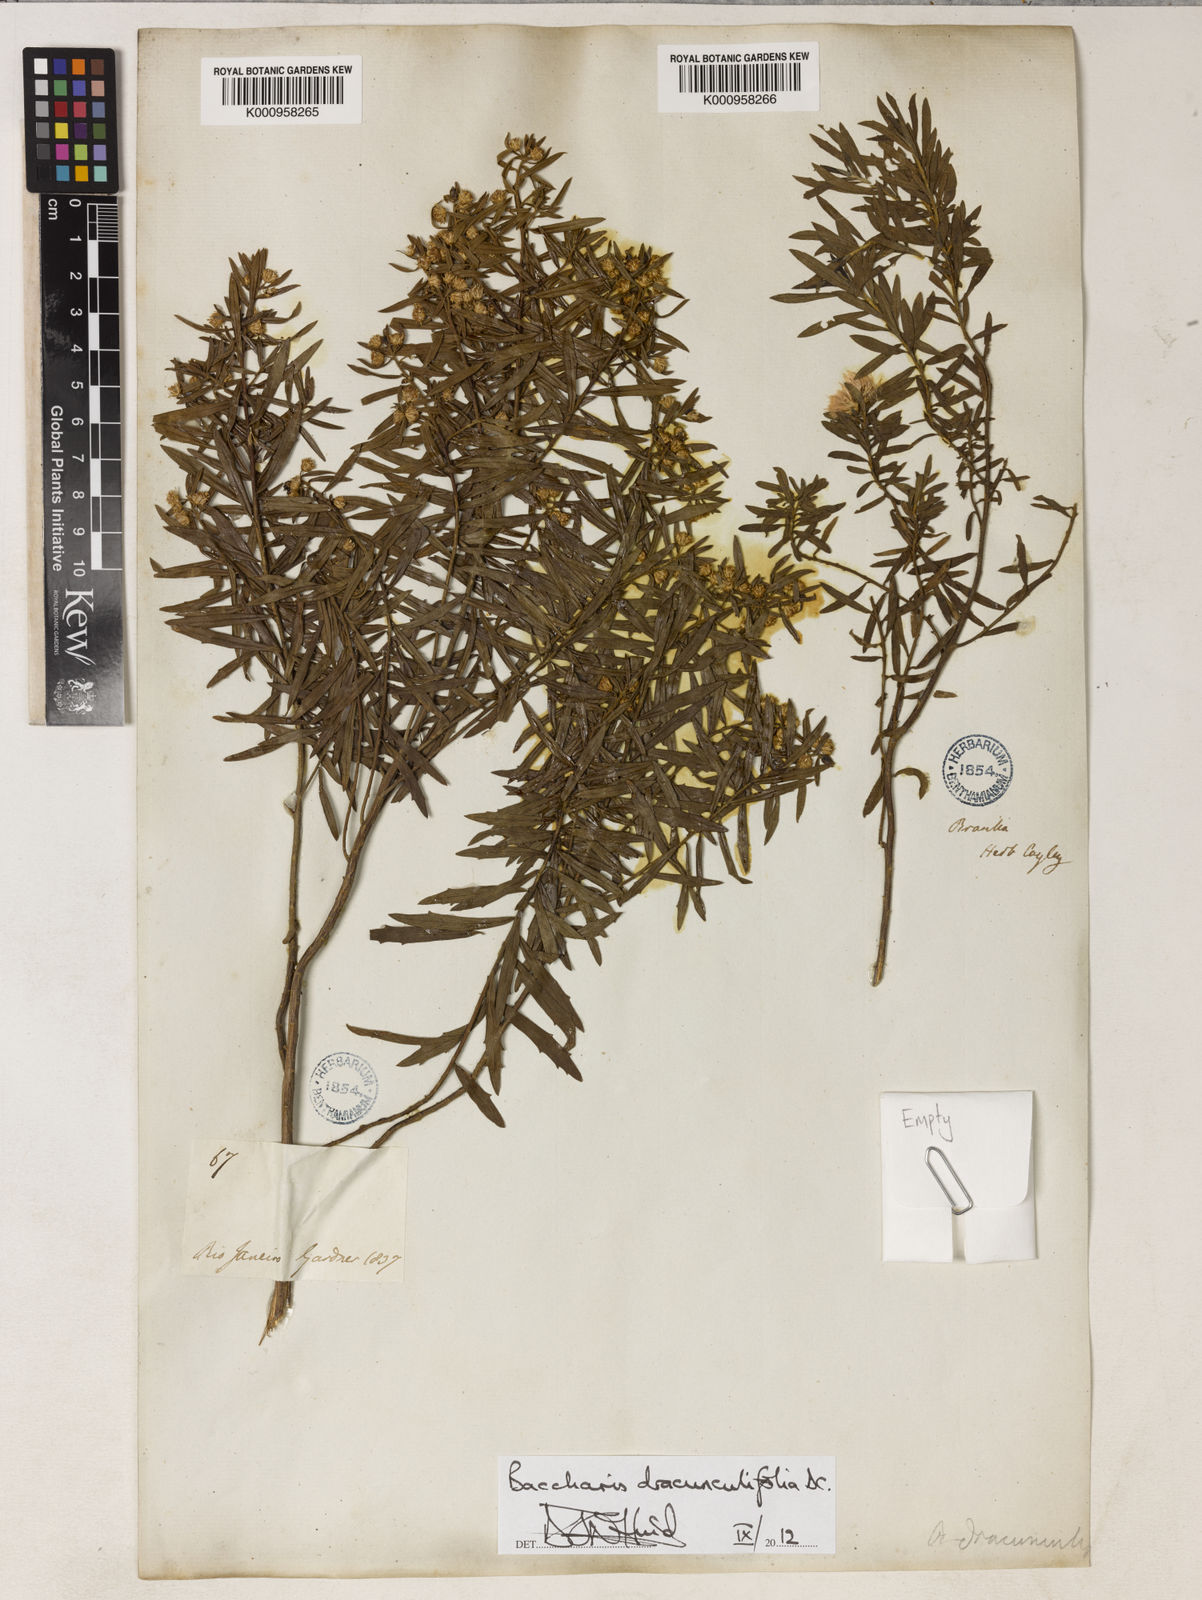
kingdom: Plantae
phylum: Tracheophyta
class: Magnoliopsida
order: Asterales
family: Asteraceae
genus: Baccharis
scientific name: Baccharis dracunculifolia
